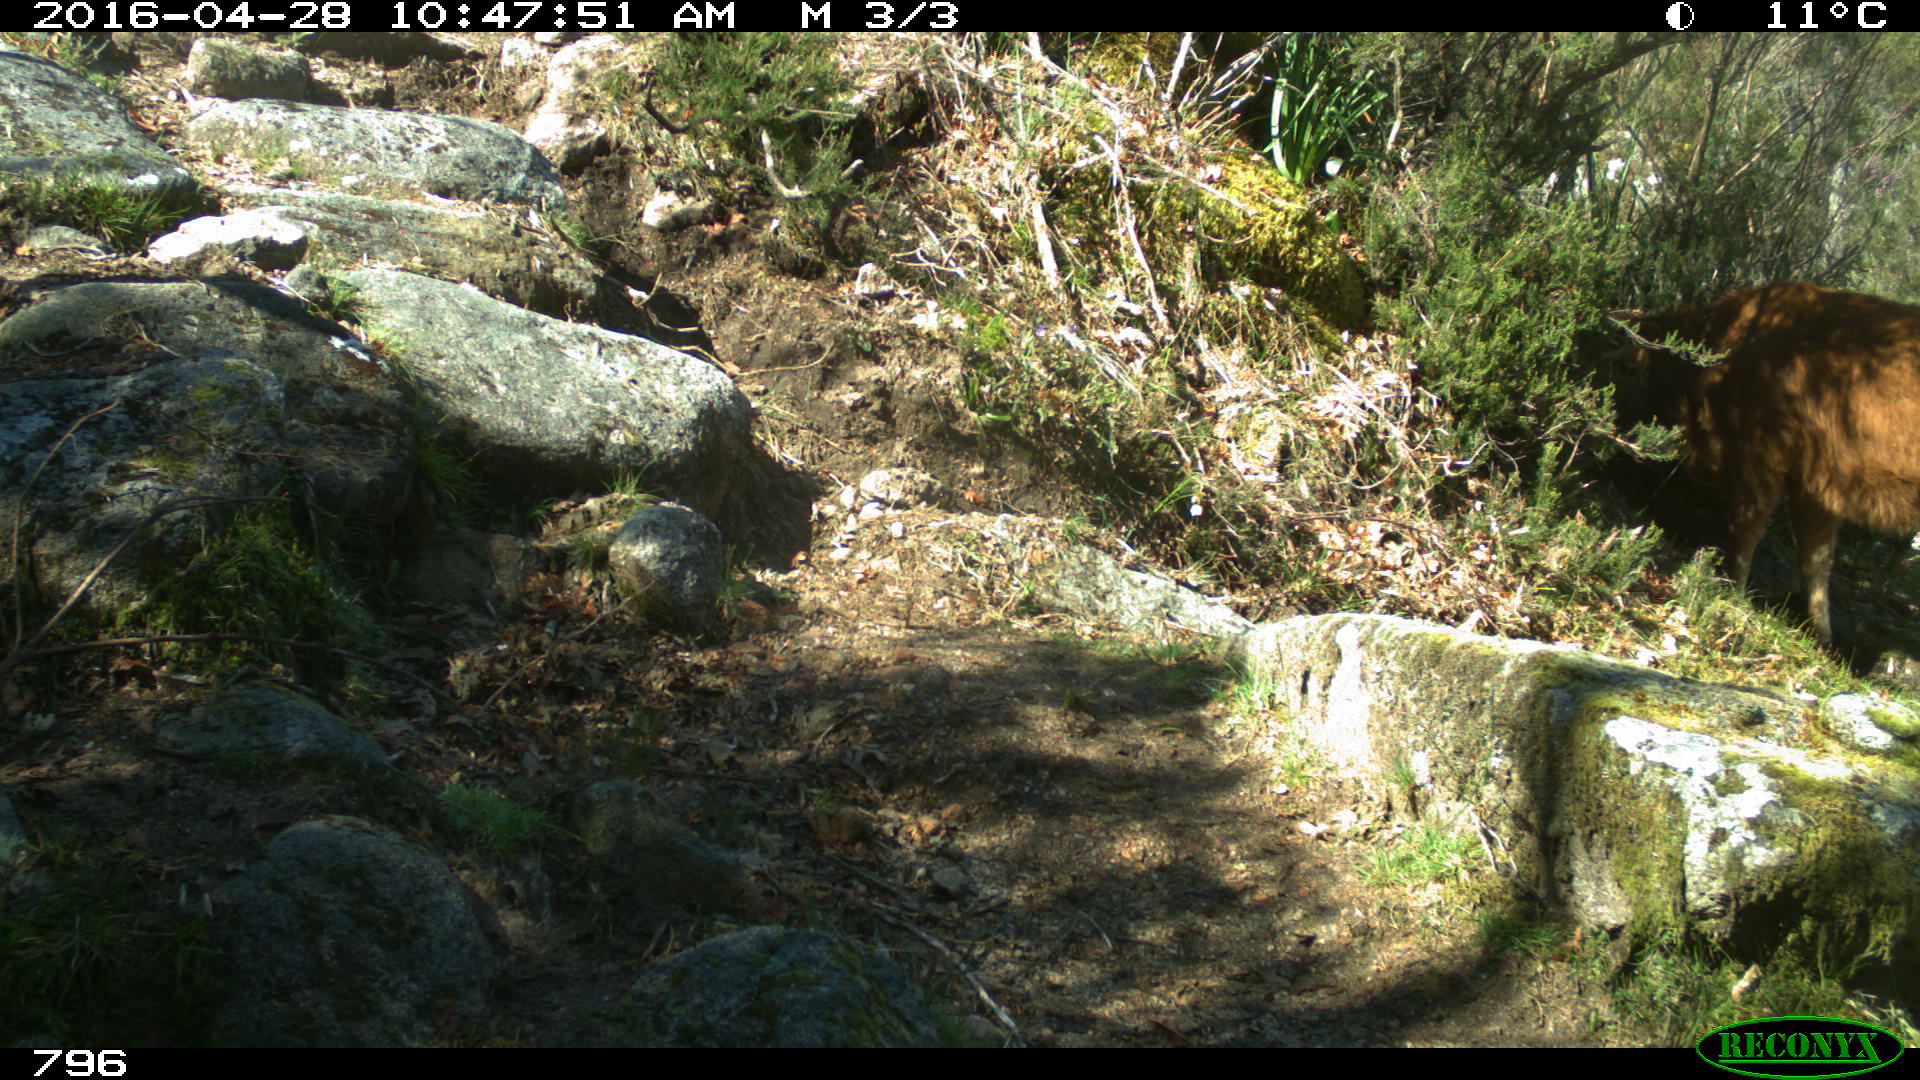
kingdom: Animalia
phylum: Chordata
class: Mammalia
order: Artiodactyla
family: Bovidae
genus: Bos
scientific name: Bos taurus
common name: Domesticated cattle
